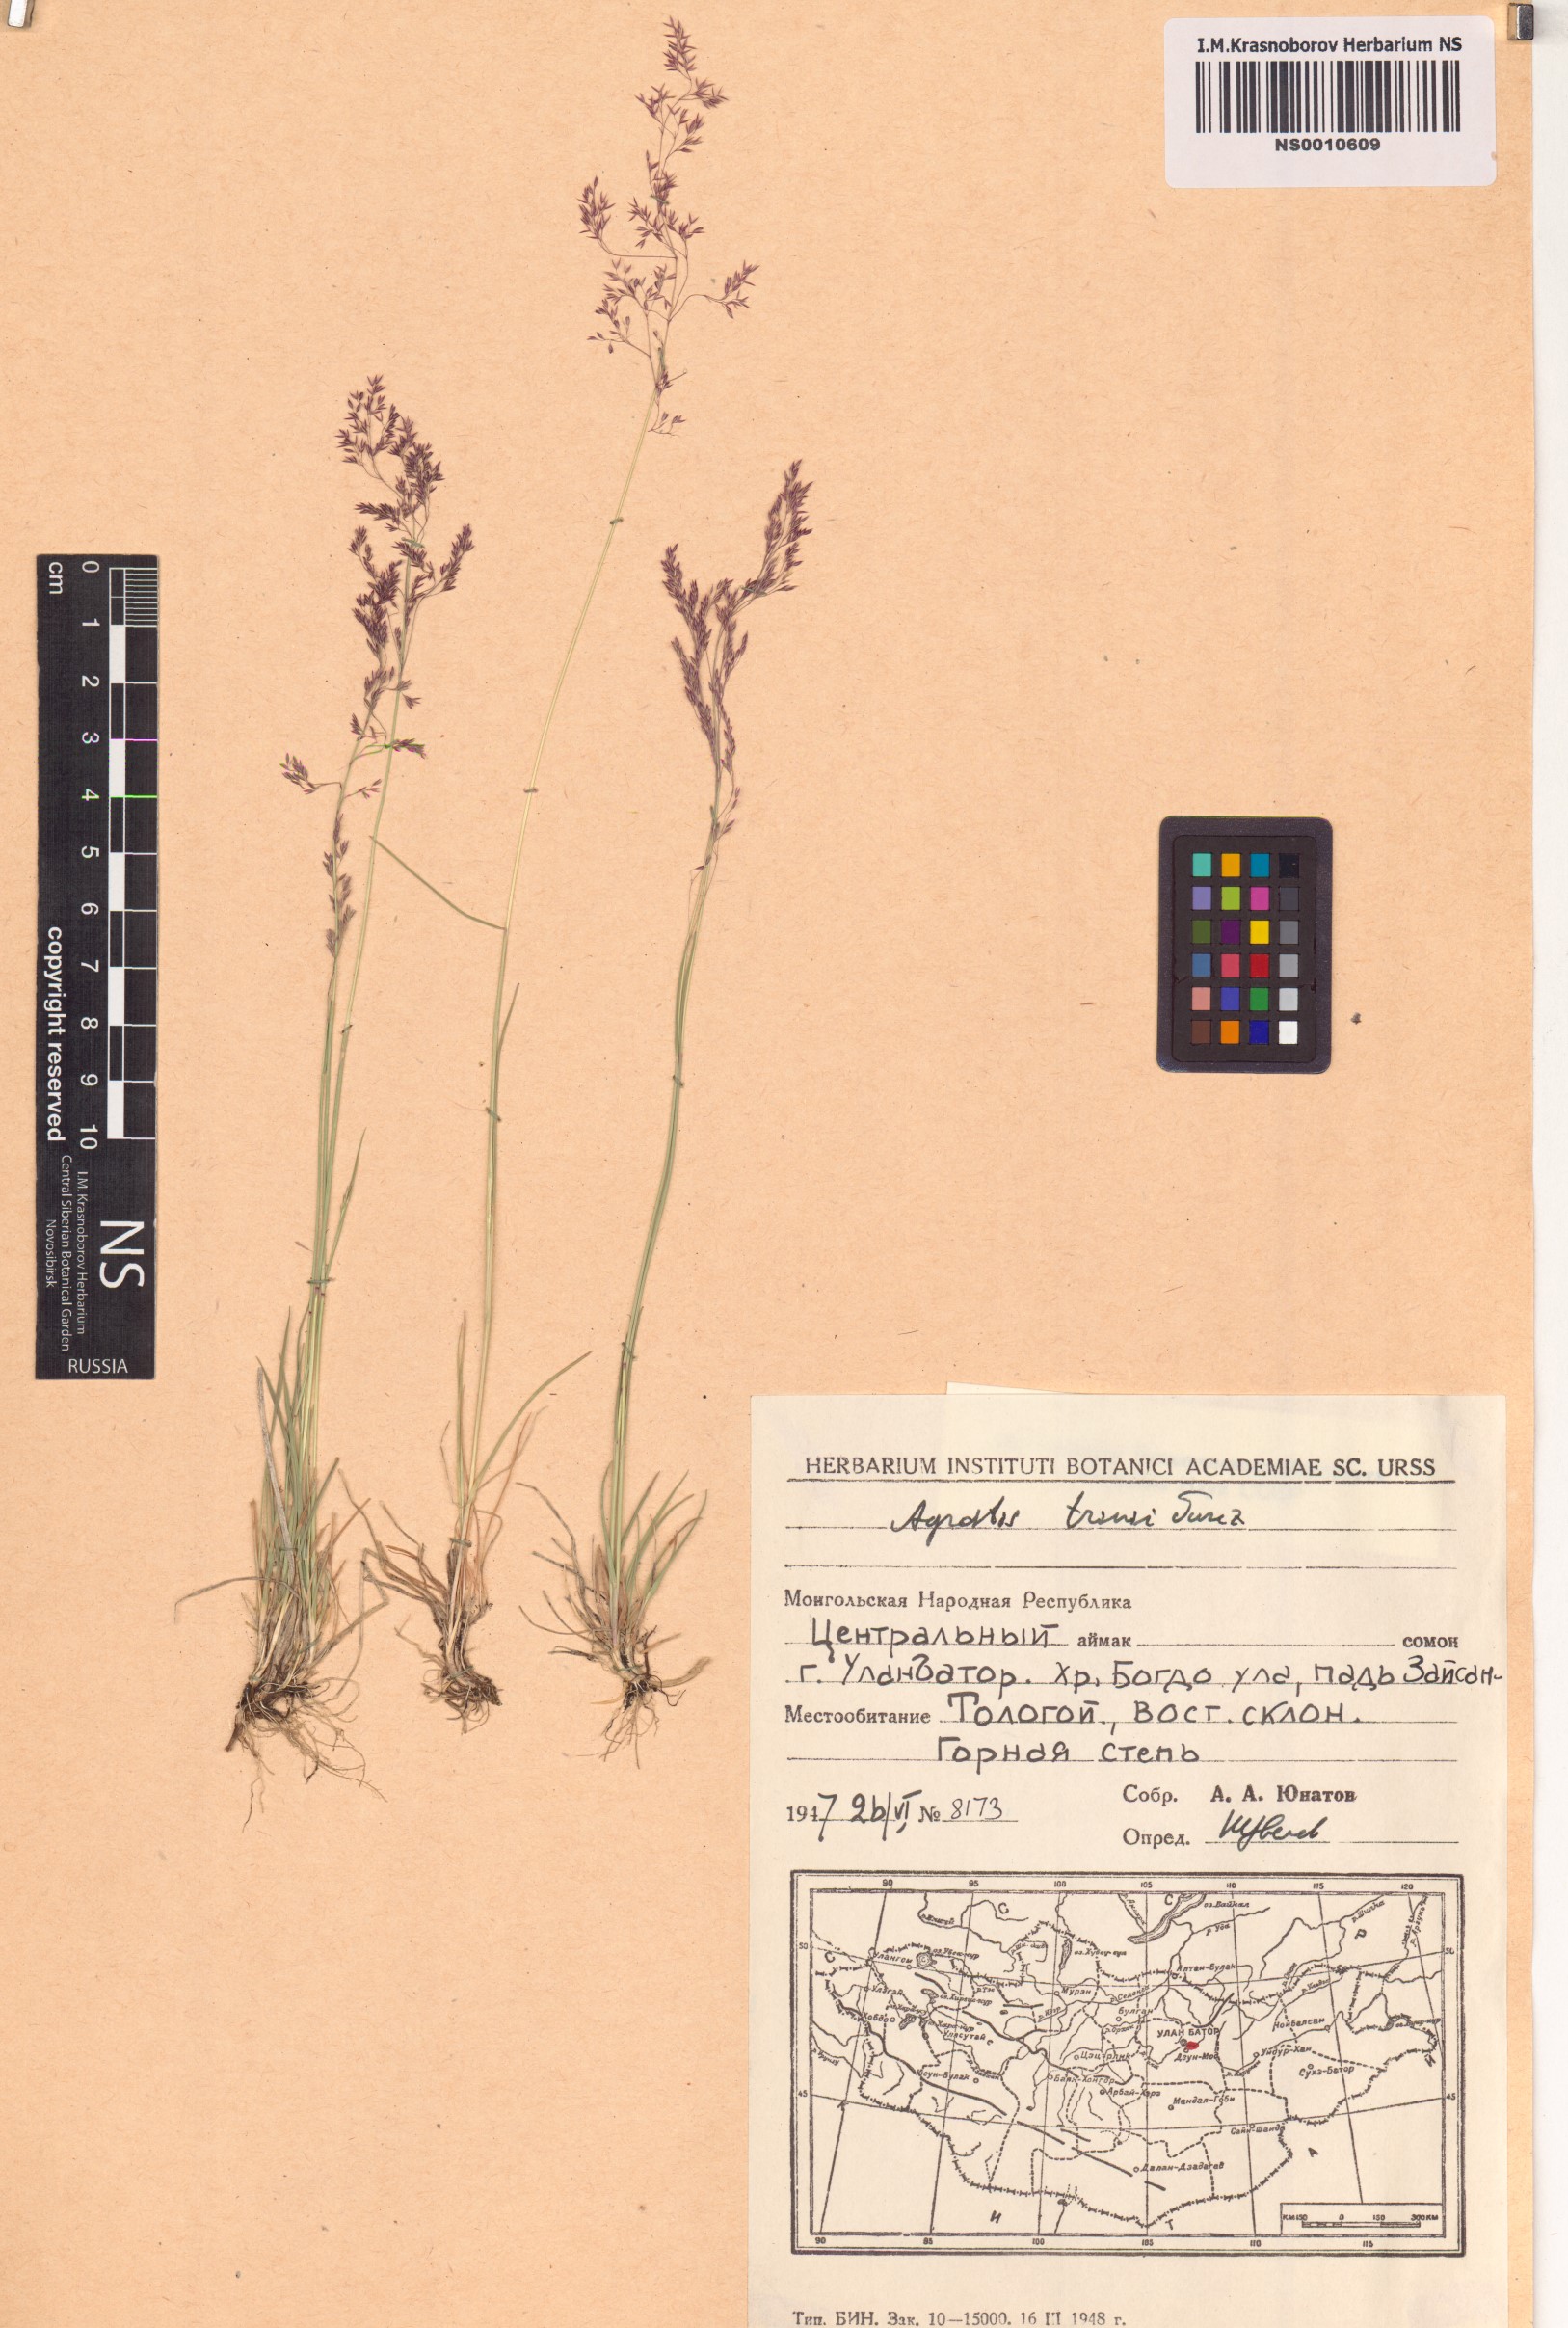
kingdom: Plantae
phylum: Tracheophyta
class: Liliopsida
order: Poales
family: Poaceae
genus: Agrostis
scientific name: Agrostis vinealis
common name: Brown bent
